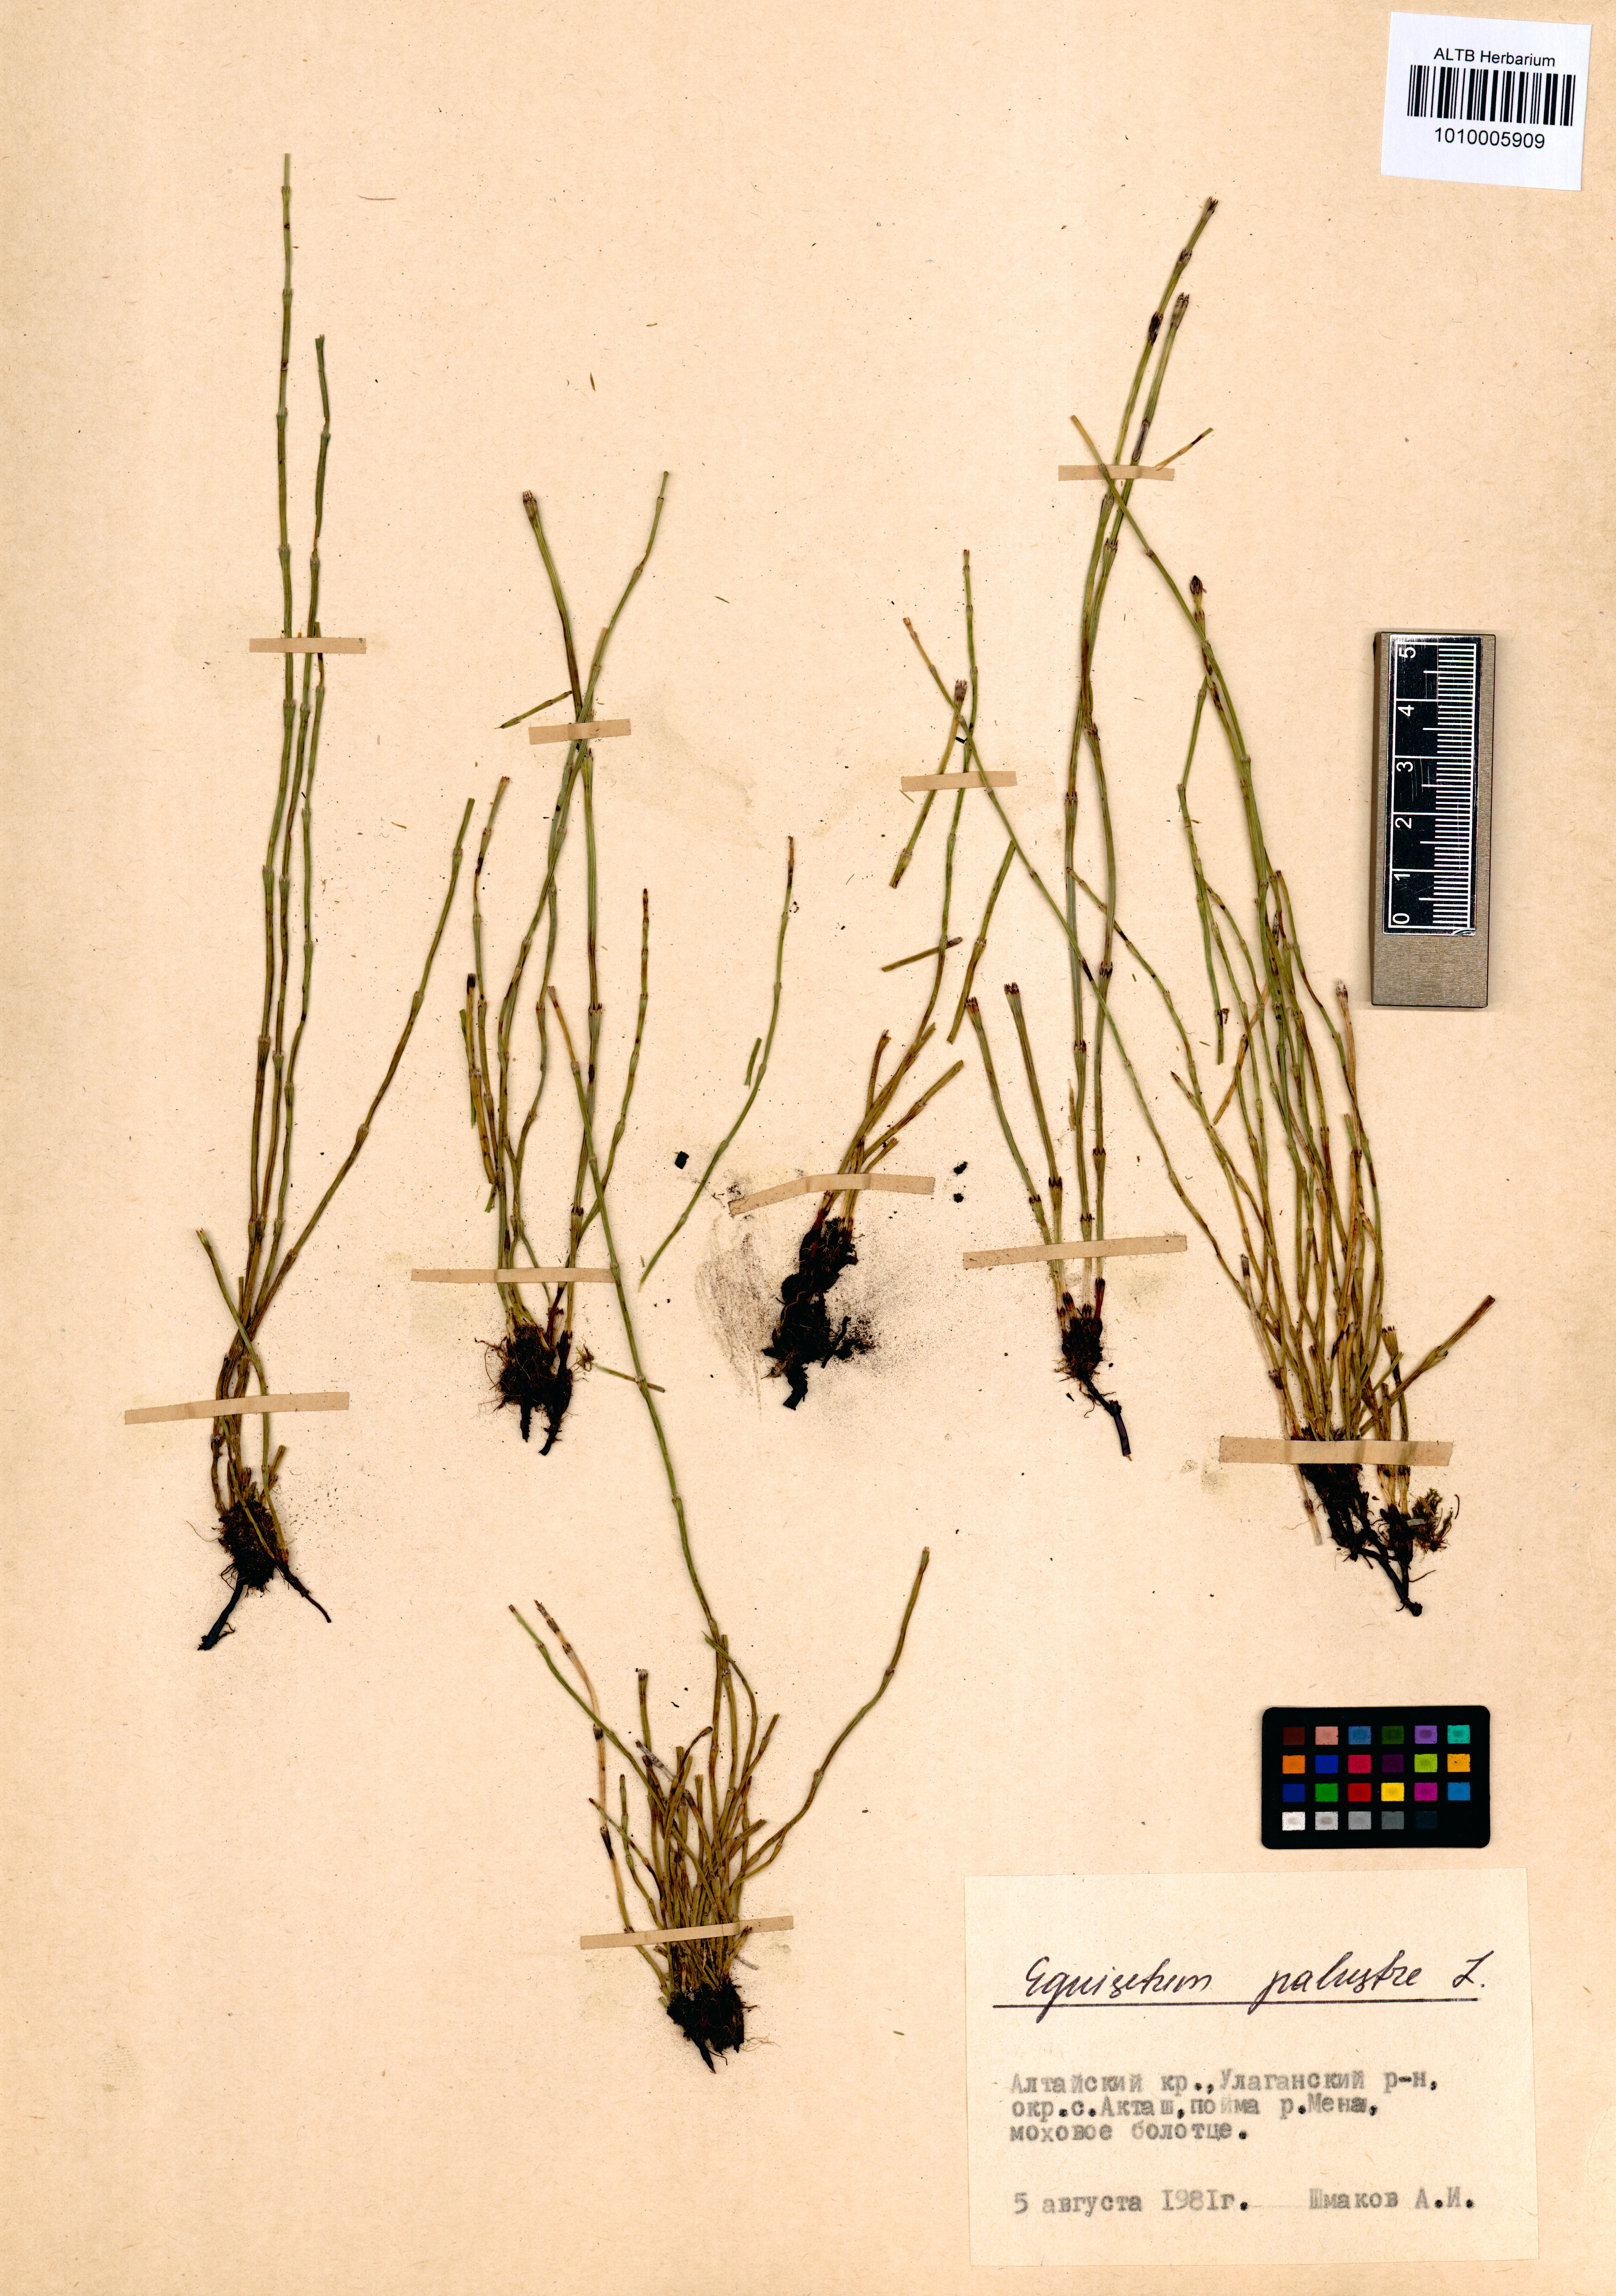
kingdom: Plantae
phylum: Tracheophyta
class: Polypodiopsida
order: Equisetales
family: Equisetaceae
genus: Equisetum
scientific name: Equisetum palustre
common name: Marsh horsetail
